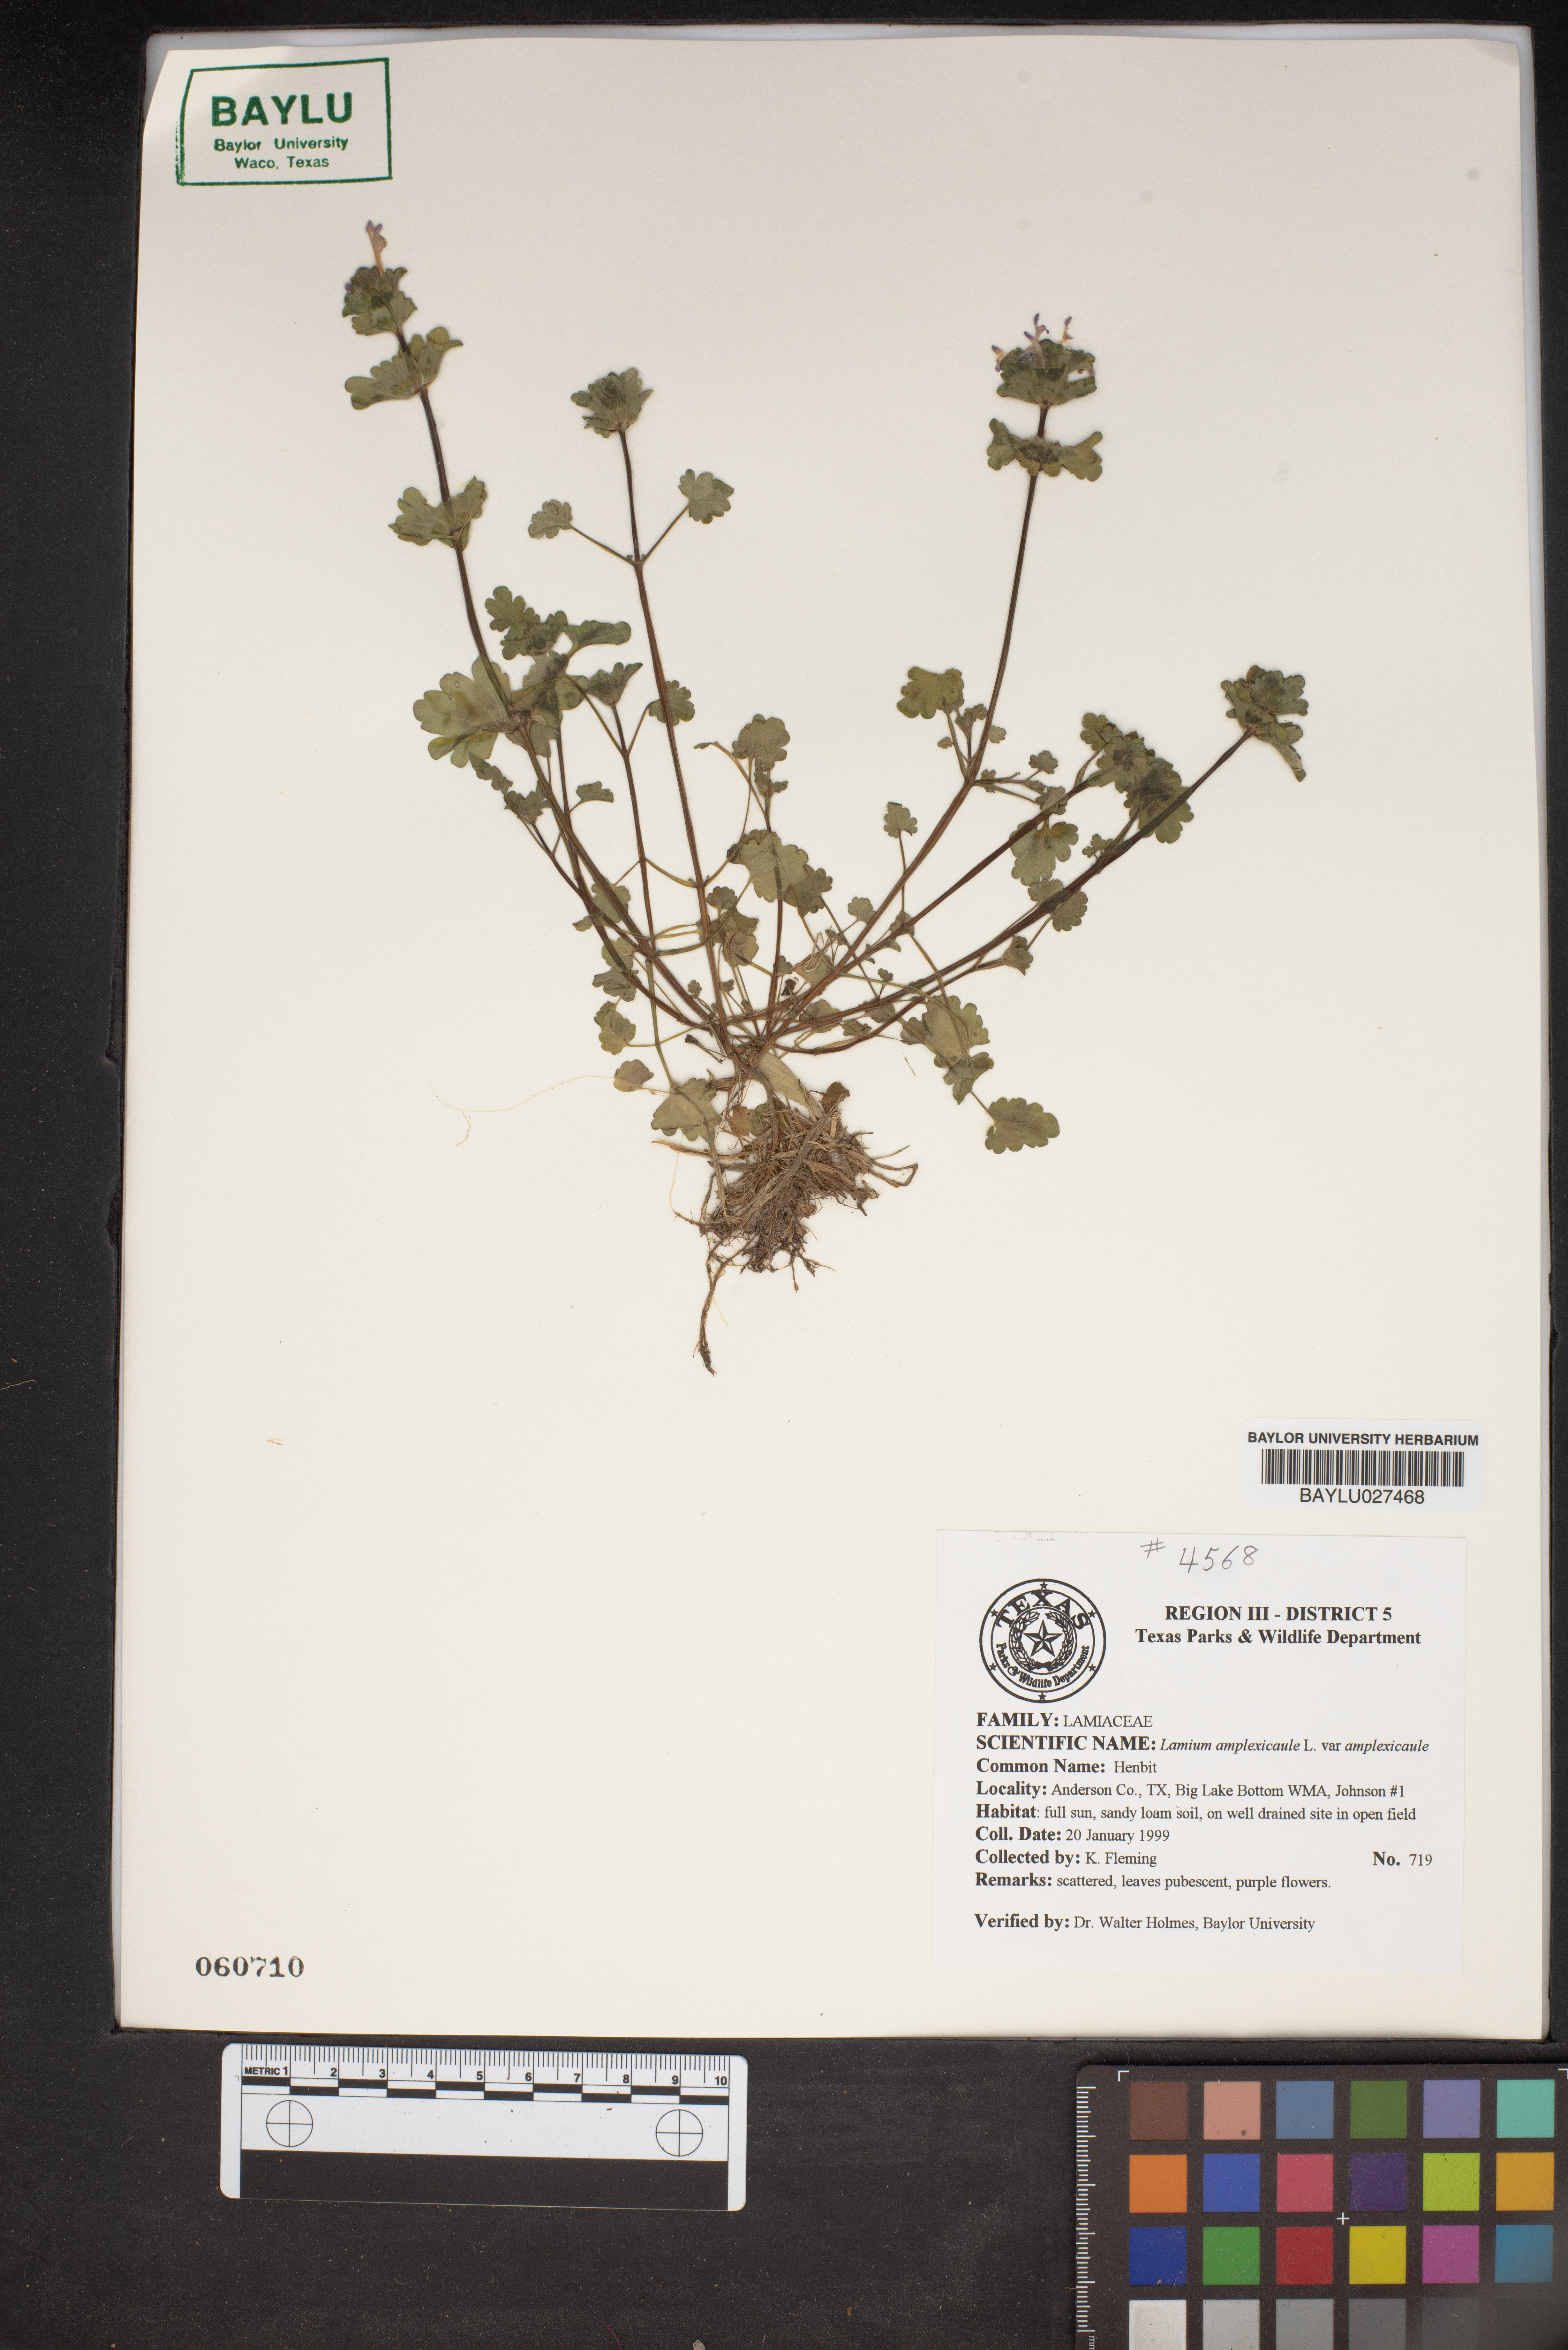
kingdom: Plantae
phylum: Tracheophyta
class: Magnoliopsida
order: Lamiales
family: Lamiaceae
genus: Lamium
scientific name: Lamium amplexicaule
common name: Henbit dead-nettle
